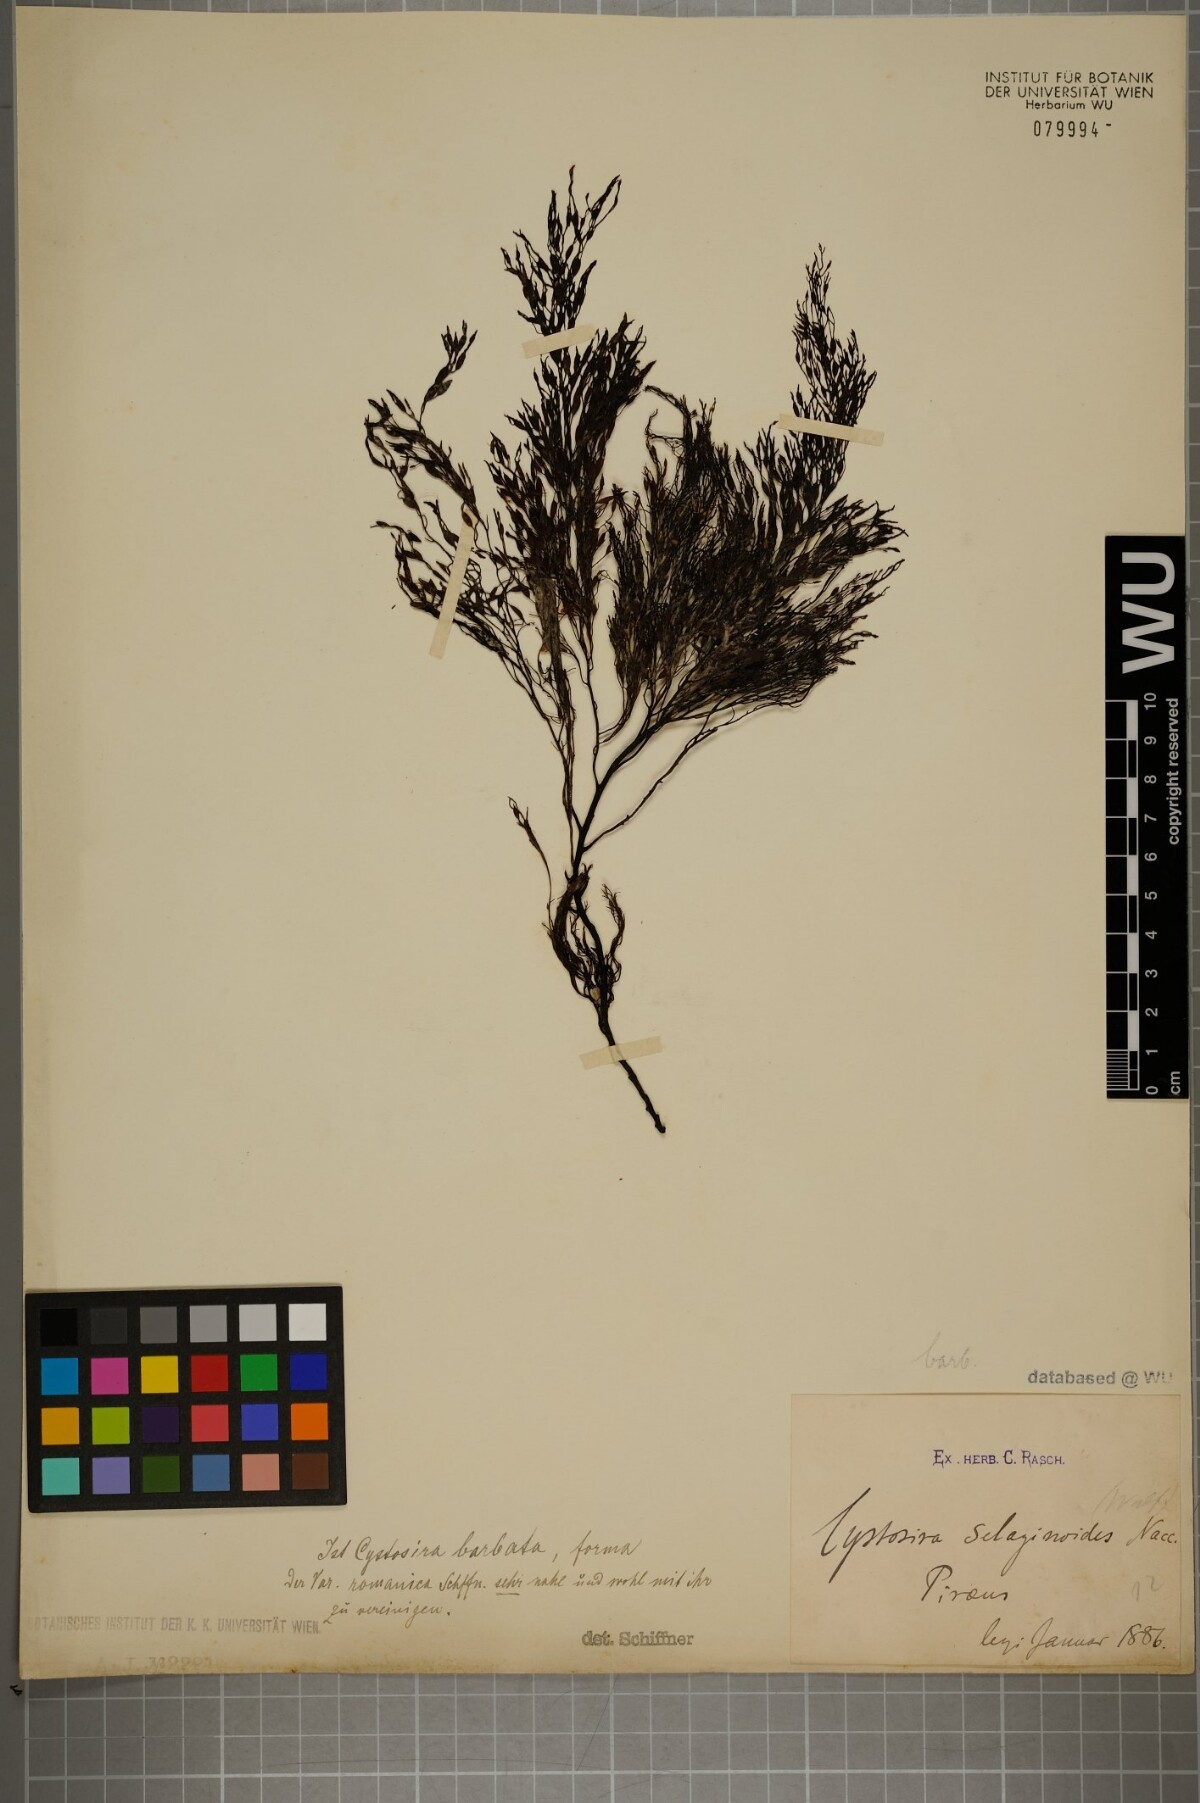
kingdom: Chromista
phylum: Ochrophyta
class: Phaeophyceae
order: Fucales
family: Sargassaceae
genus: Cystoseira
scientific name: Cystoseira Gongolaria barbata
